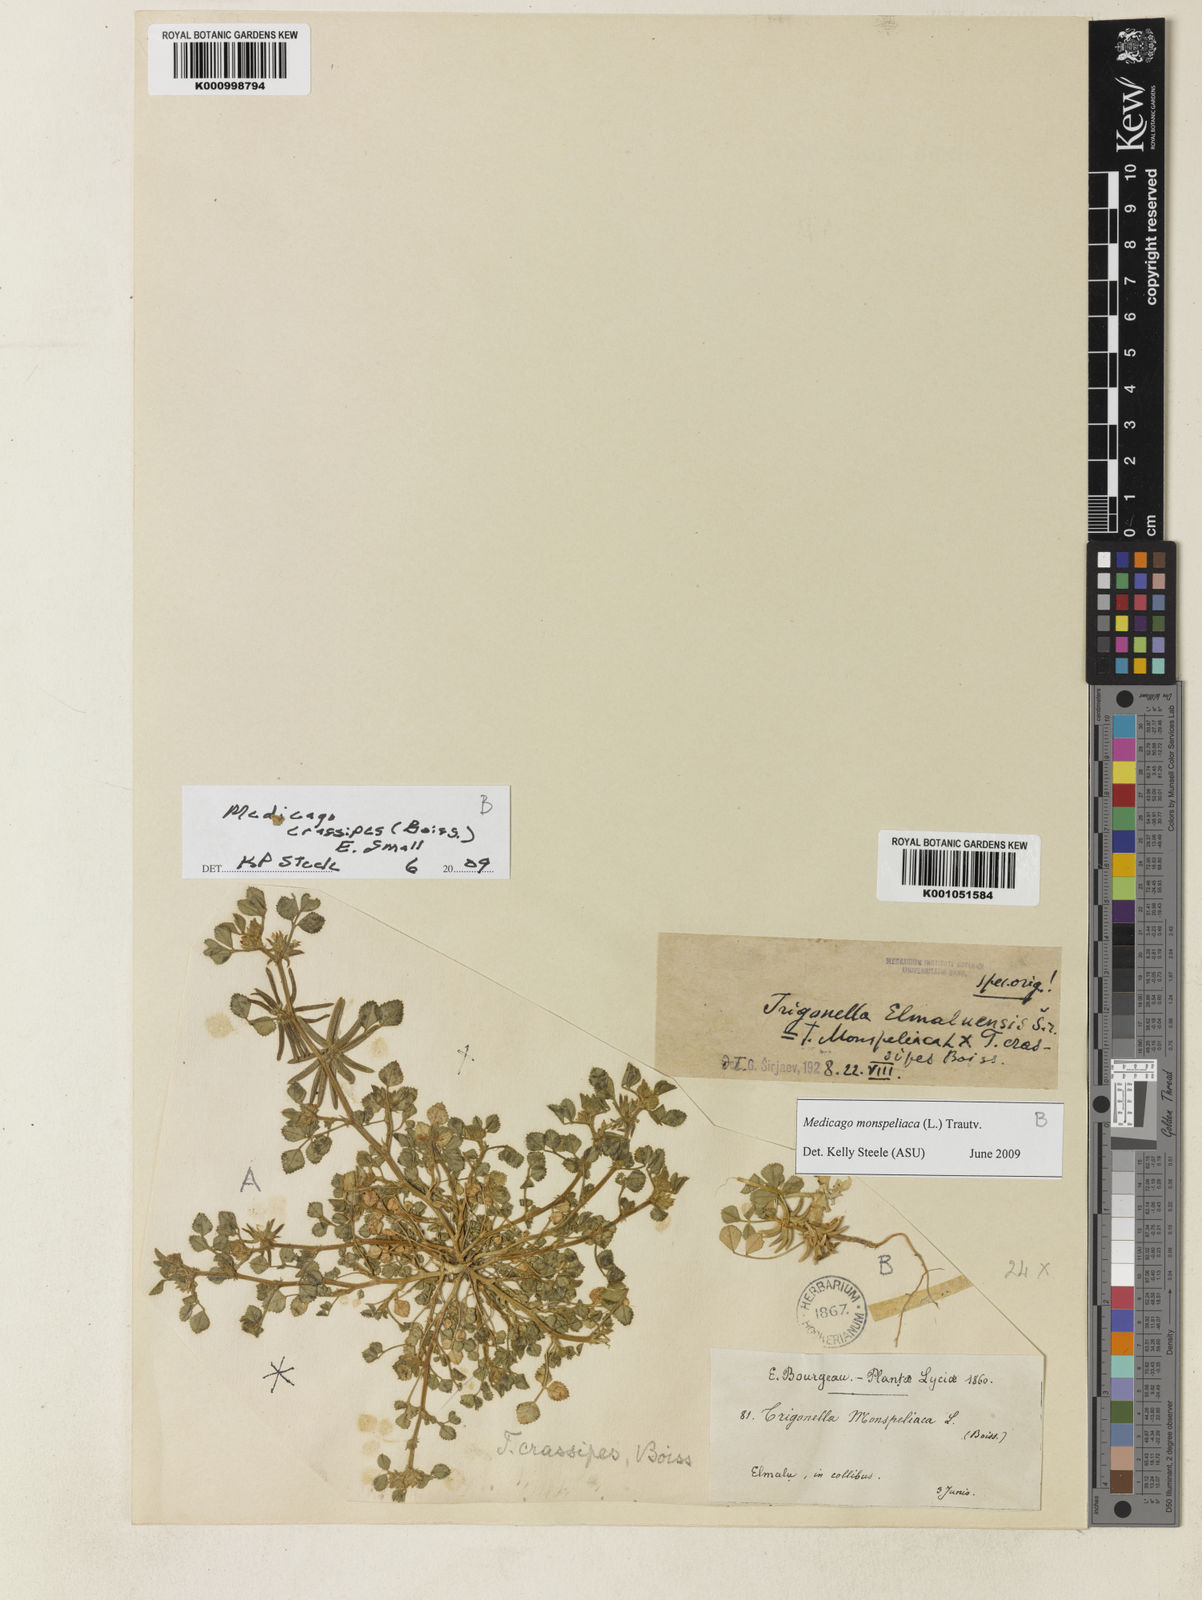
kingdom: Plantae
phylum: Tracheophyta
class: Magnoliopsida
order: Fabales
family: Fabaceae
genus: Medicago
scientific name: Medicago crassipes
